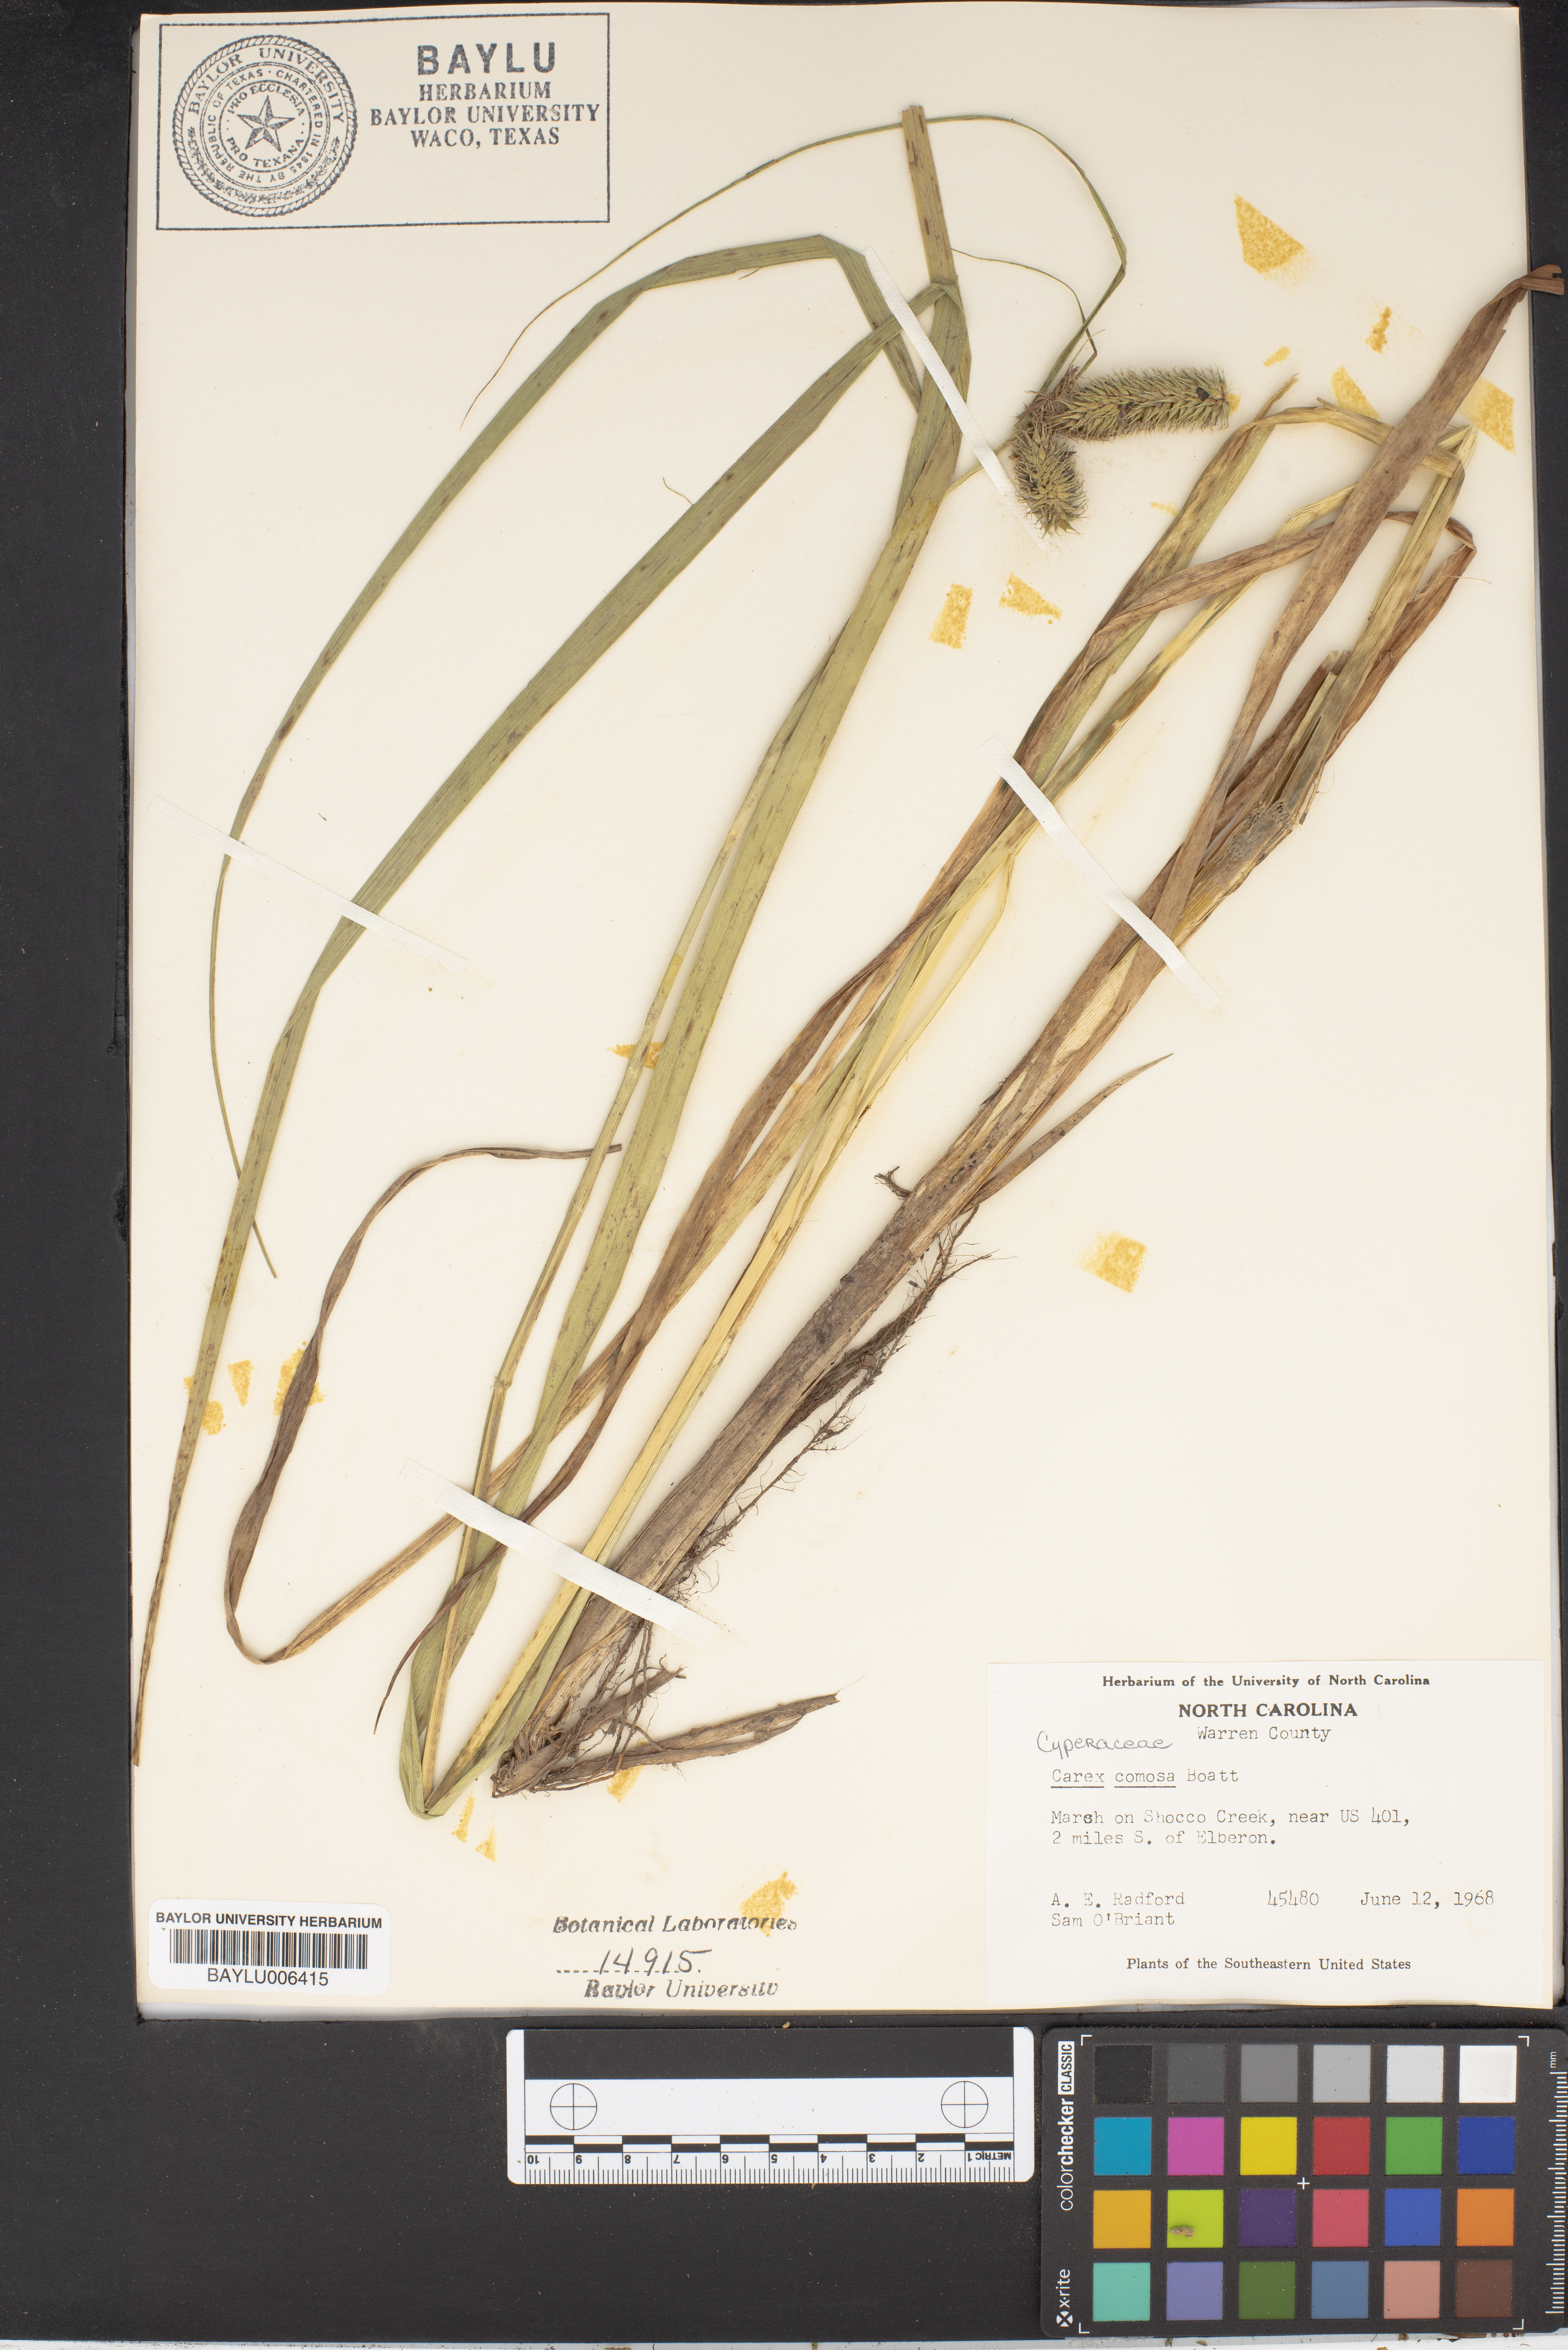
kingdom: Plantae
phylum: Tracheophyta
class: Liliopsida
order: Poales
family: Cyperaceae
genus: Carex
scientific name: Carex comosa
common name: Bristly sedge
